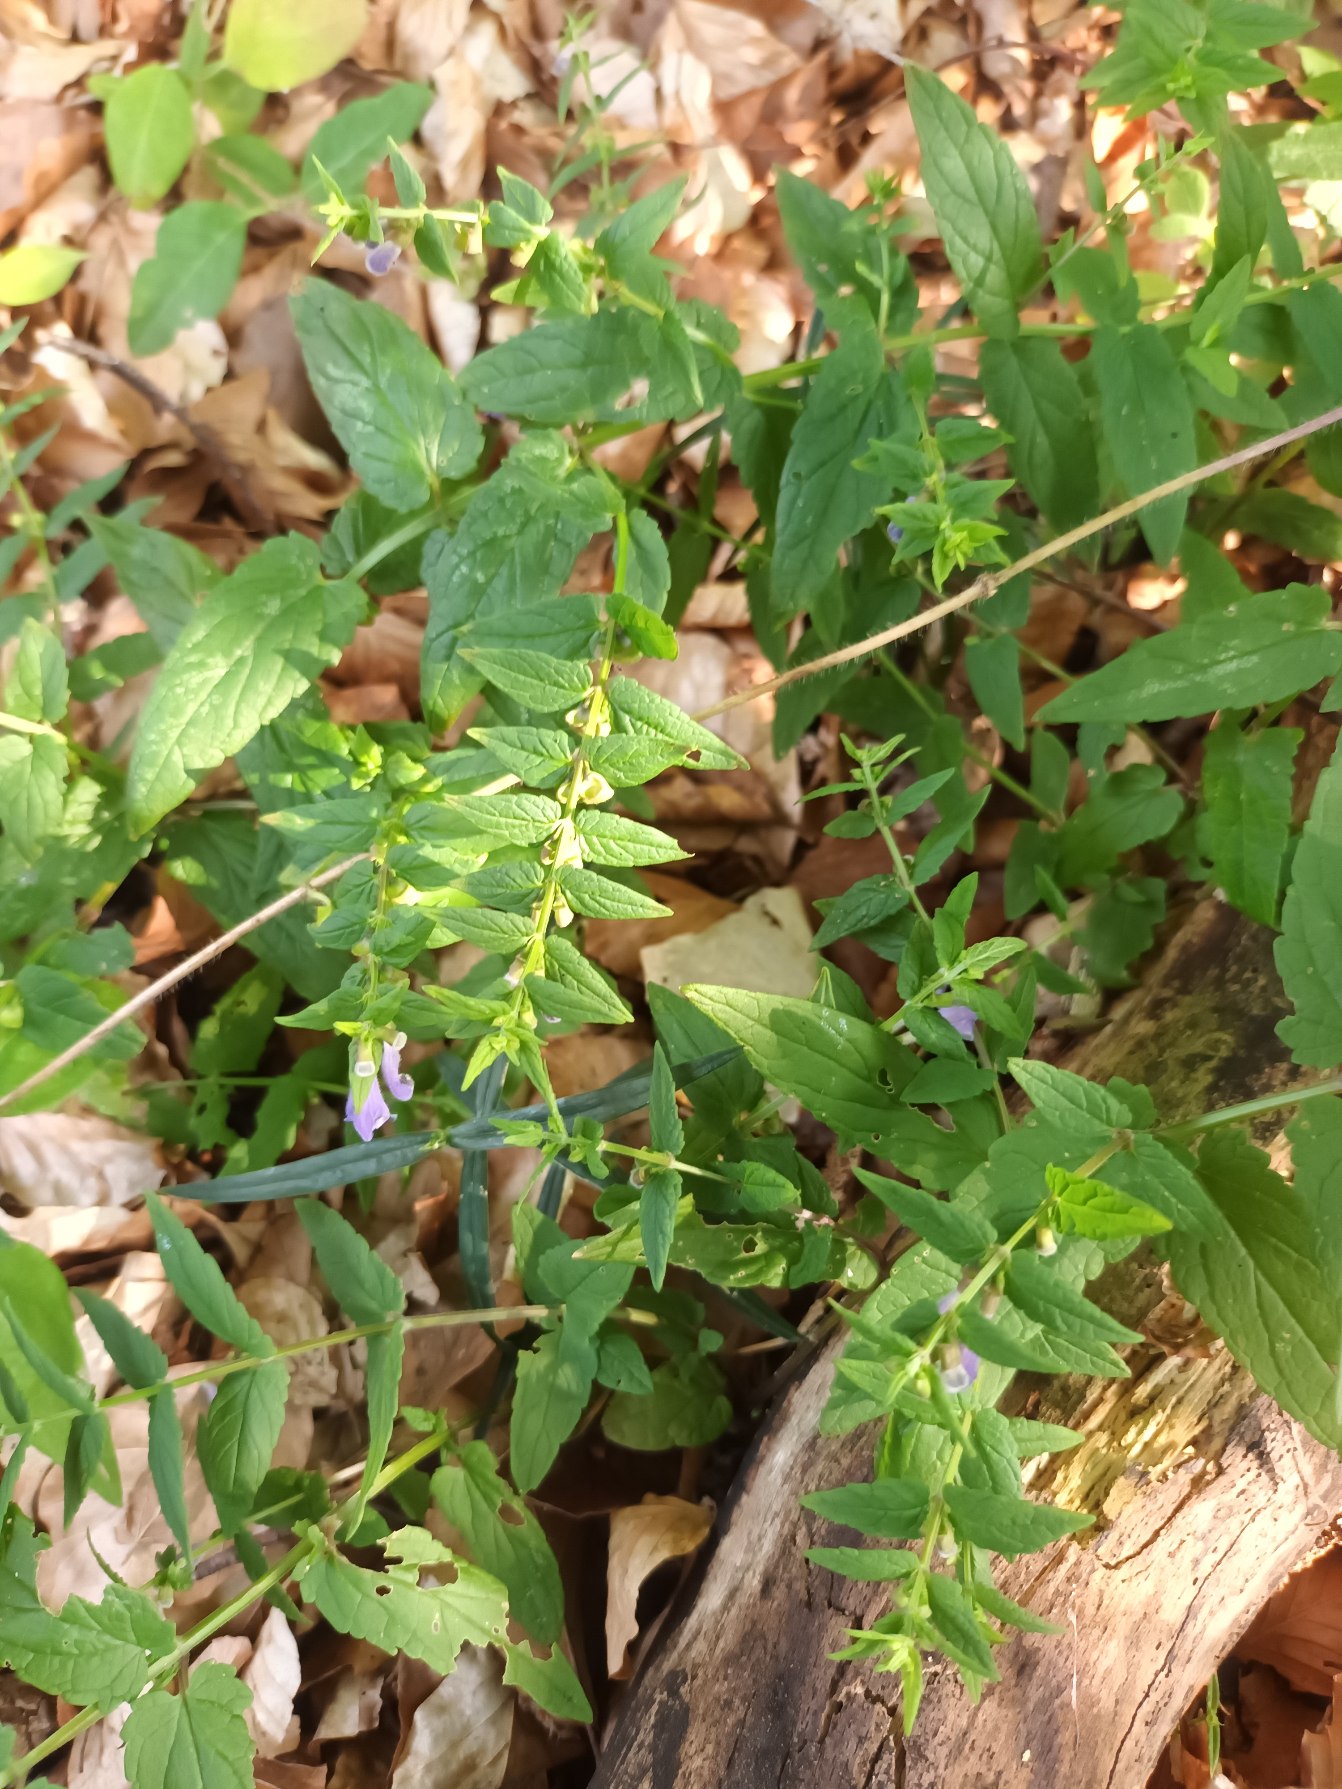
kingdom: Plantae
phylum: Tracheophyta
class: Magnoliopsida
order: Lamiales
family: Lamiaceae
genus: Scutellaria
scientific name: Scutellaria galericulata
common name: Almindelig skjolddrager
